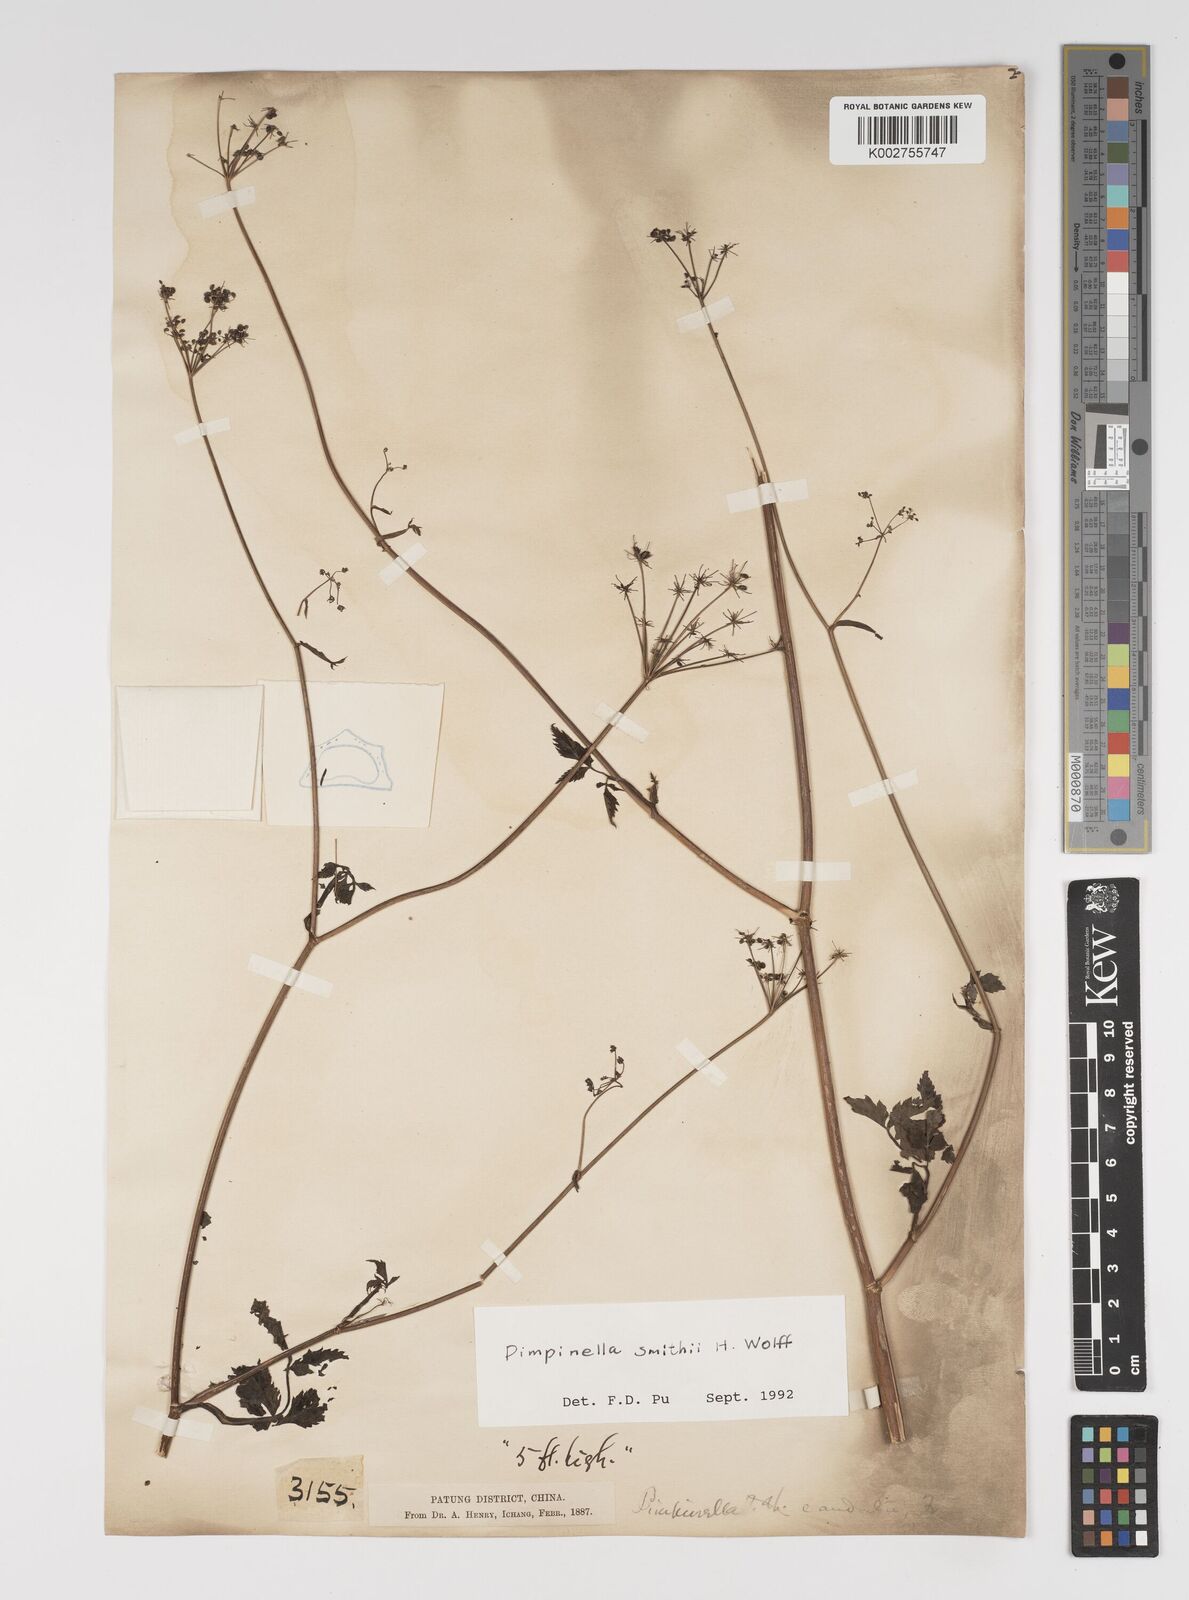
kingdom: Plantae
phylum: Tracheophyta
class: Magnoliopsida
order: Apiales
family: Apiaceae
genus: Pimpinella
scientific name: Pimpinella heliosciadea
